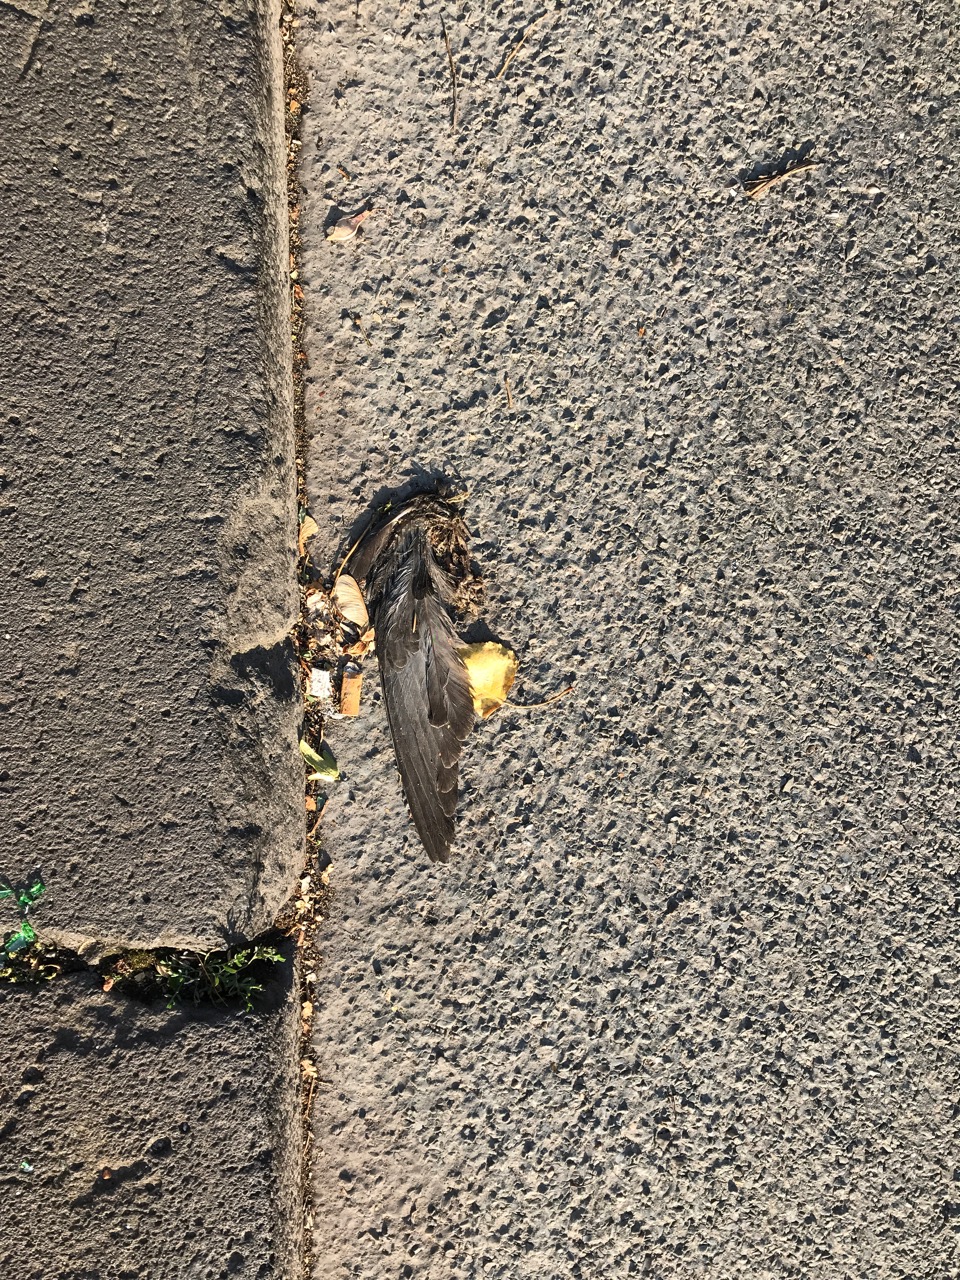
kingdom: Animalia
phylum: Chordata
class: Aves
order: Passeriformes
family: Turdidae
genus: Turdus
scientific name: Turdus merula
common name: Common blackbird
